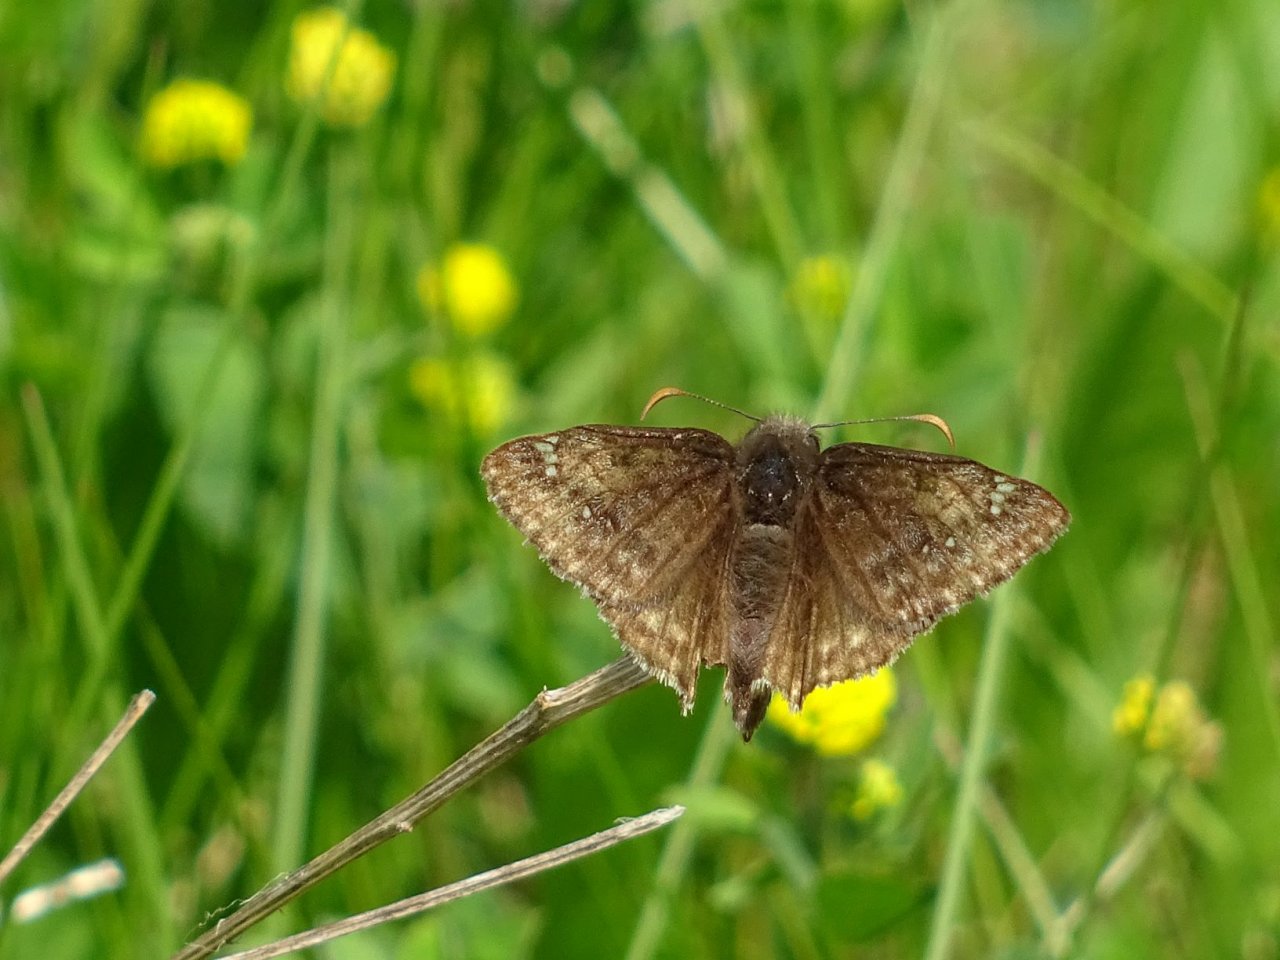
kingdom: Animalia
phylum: Arthropoda
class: Insecta
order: Lepidoptera
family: Hesperiidae
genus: Gesta
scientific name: Gesta
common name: Juvenal's Duskywing
